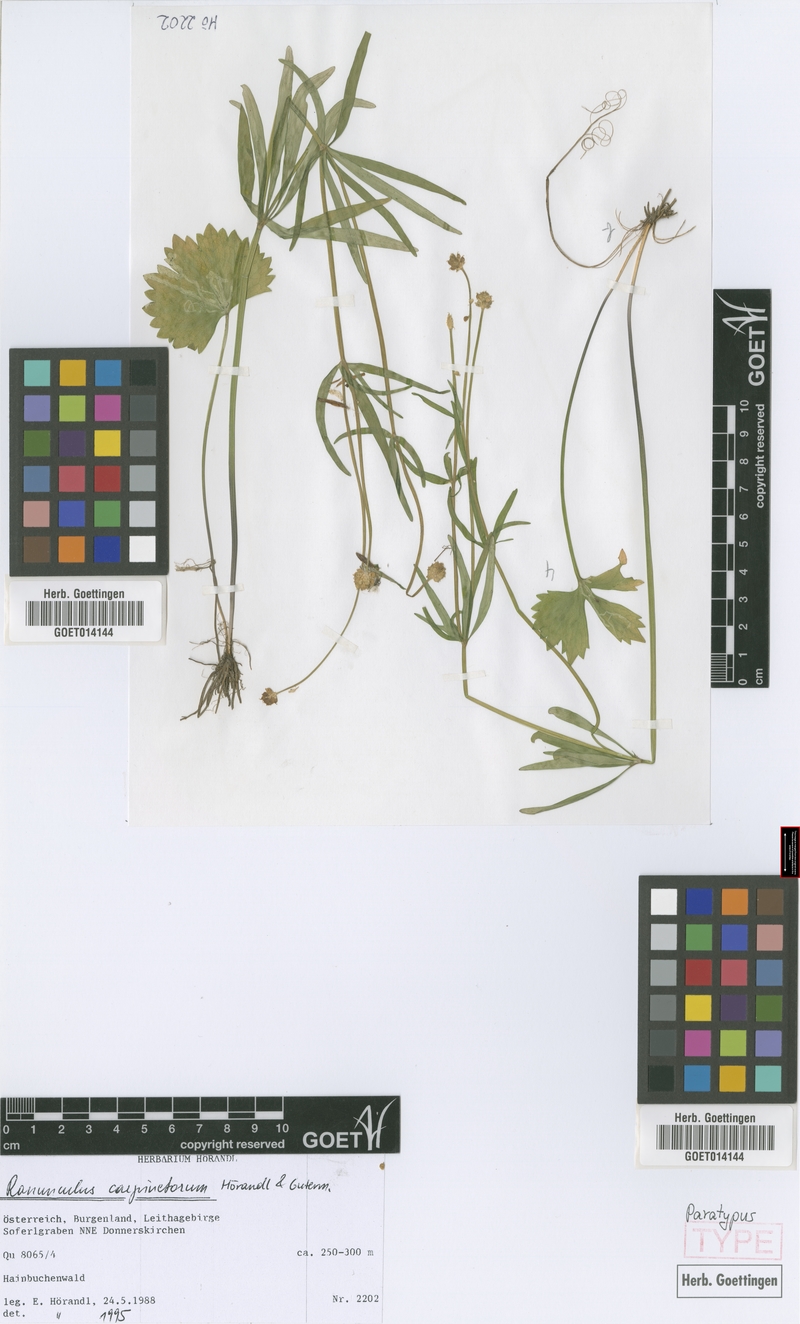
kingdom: Plantae
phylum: Tracheophyta
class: Magnoliopsida
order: Ranunculales
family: Ranunculaceae
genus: Ranunculus
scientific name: Ranunculus carpinetorum
